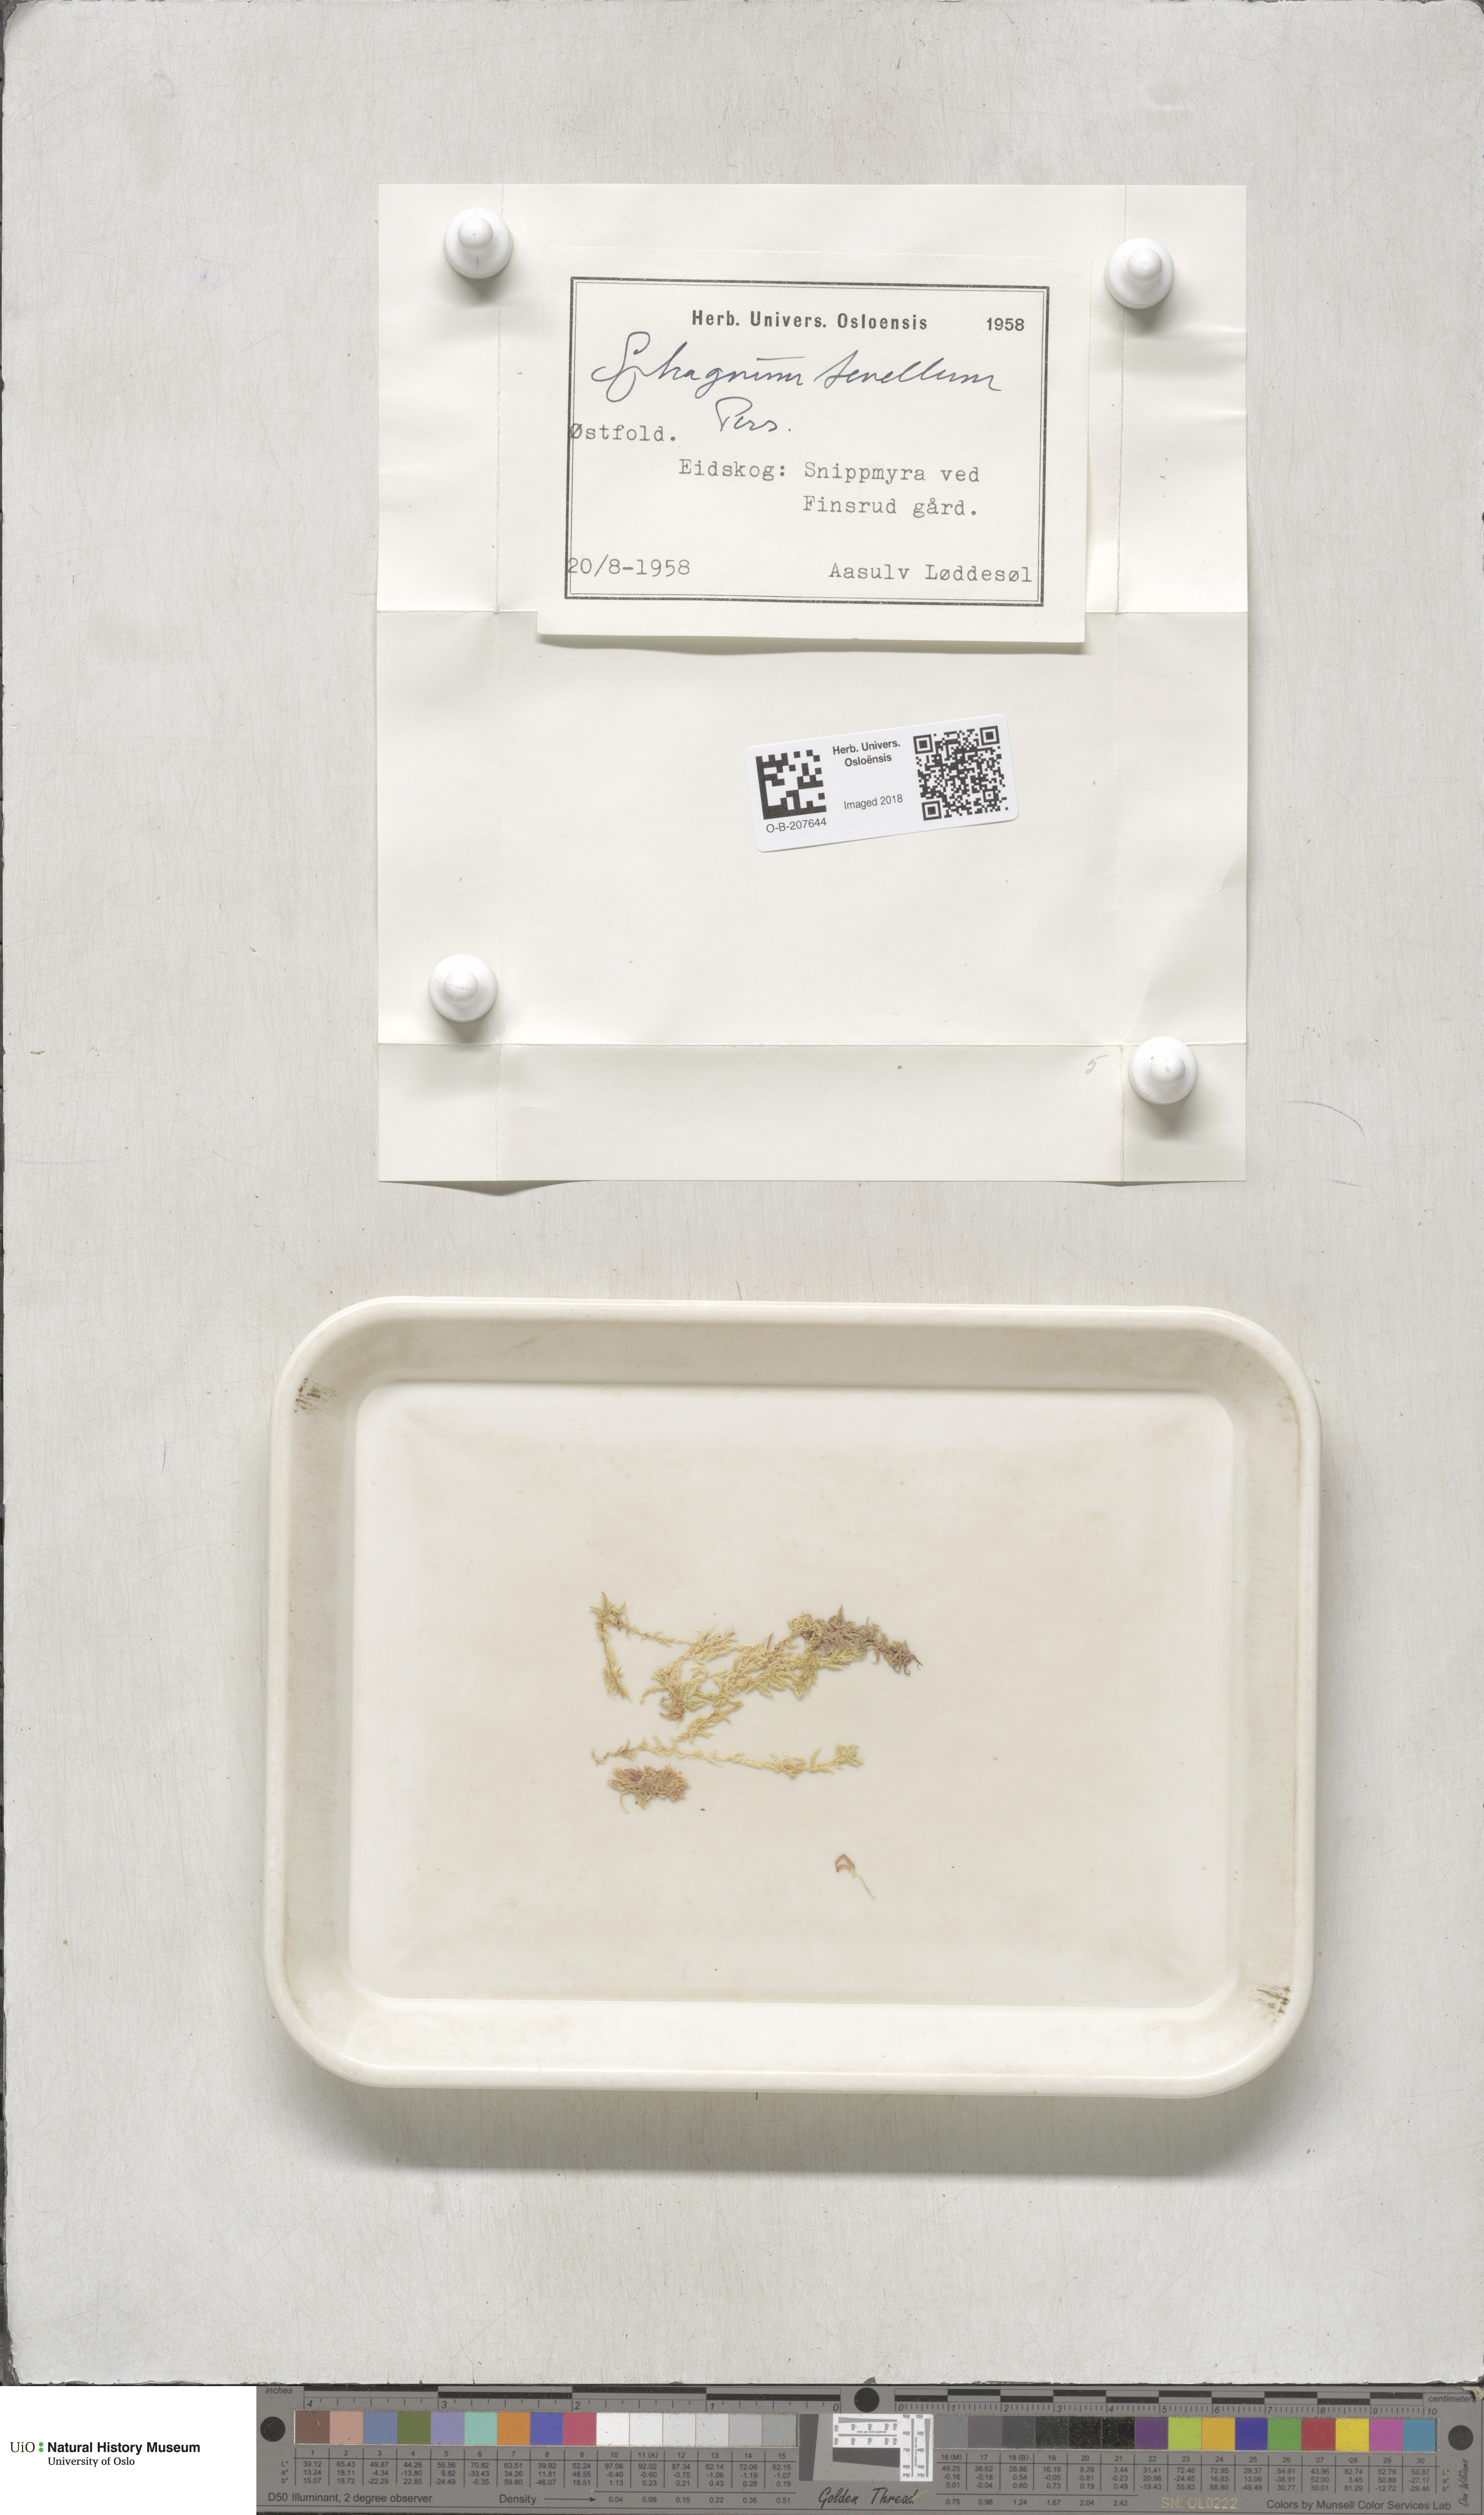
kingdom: Plantae
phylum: Bryophyta
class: Sphagnopsida
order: Sphagnales
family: Sphagnaceae
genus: Sphagnum
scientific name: Sphagnum tenellum
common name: Soft bog-moss
